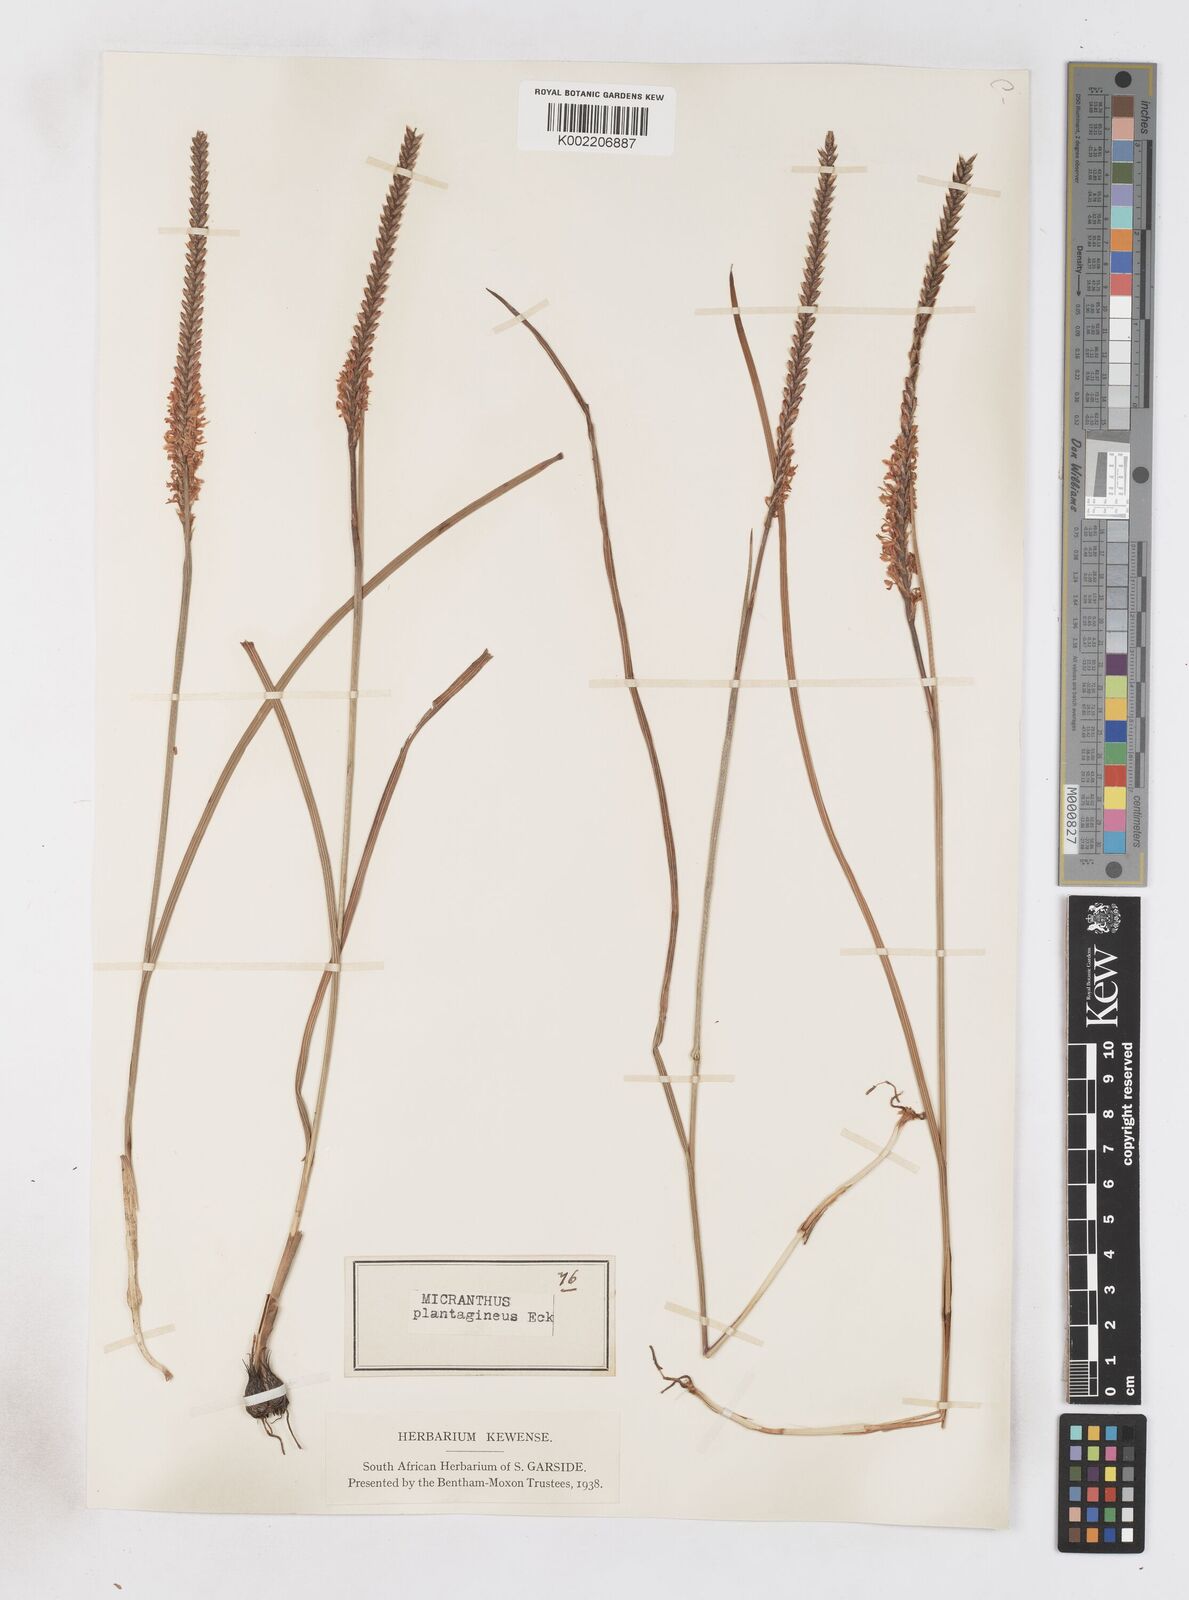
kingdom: Plantae
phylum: Tracheophyta
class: Liliopsida
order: Asparagales
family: Iridaceae
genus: Micranthus
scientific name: Micranthus plantagineus
